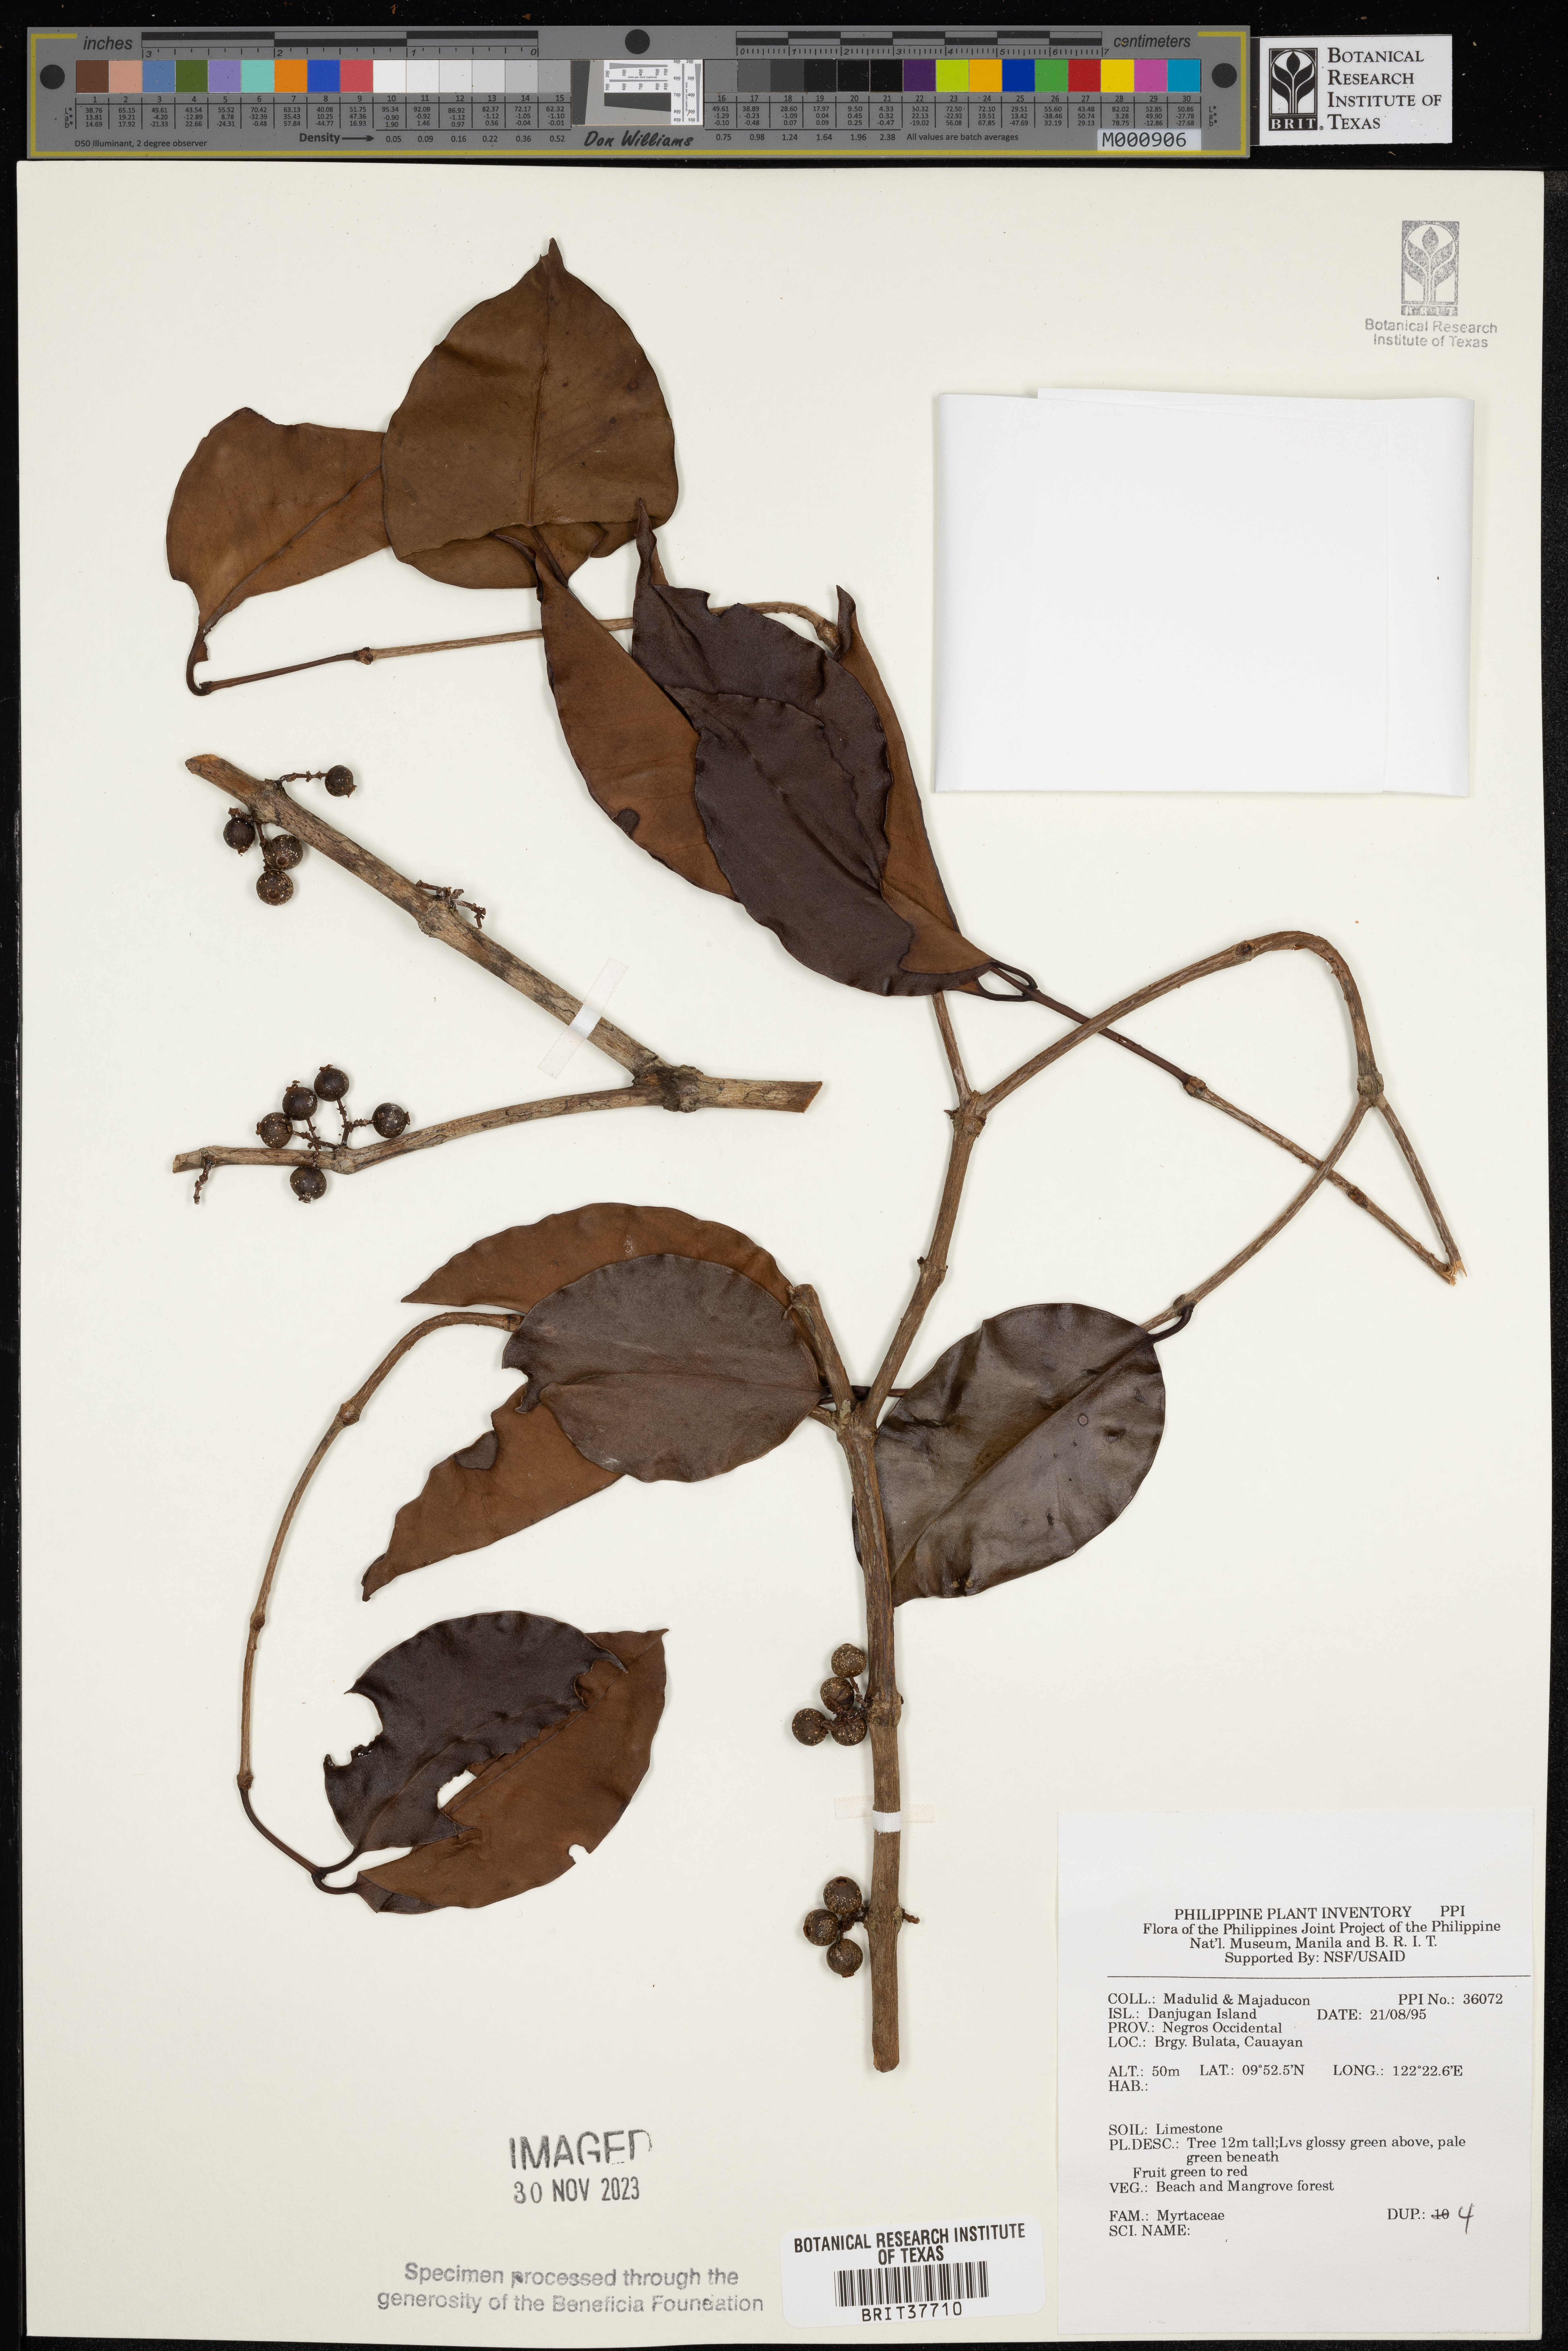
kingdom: Plantae
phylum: Tracheophyta
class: Magnoliopsida
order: Myrtales
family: Myrtaceae
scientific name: Myrtaceae
